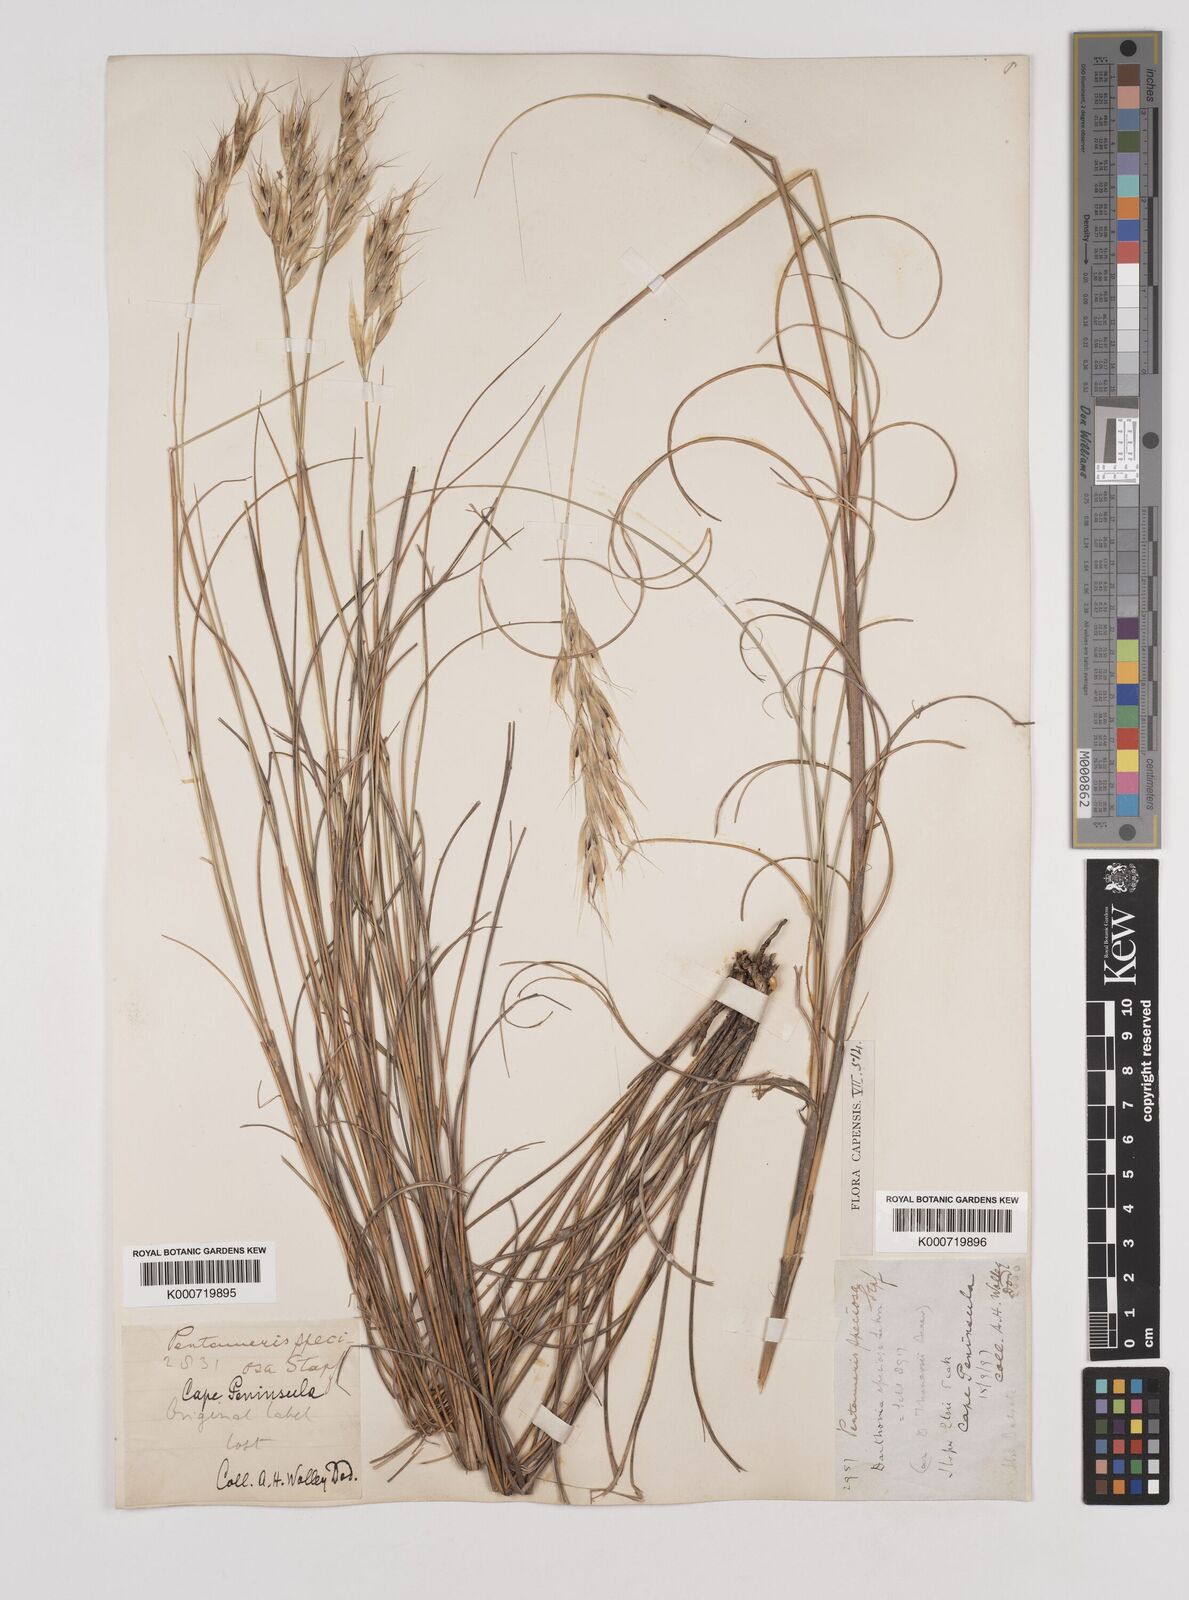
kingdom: Plantae
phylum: Tracheophyta
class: Liliopsida
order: Poales
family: Poaceae
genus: Pentameris
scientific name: Pentameris macrocalycina
